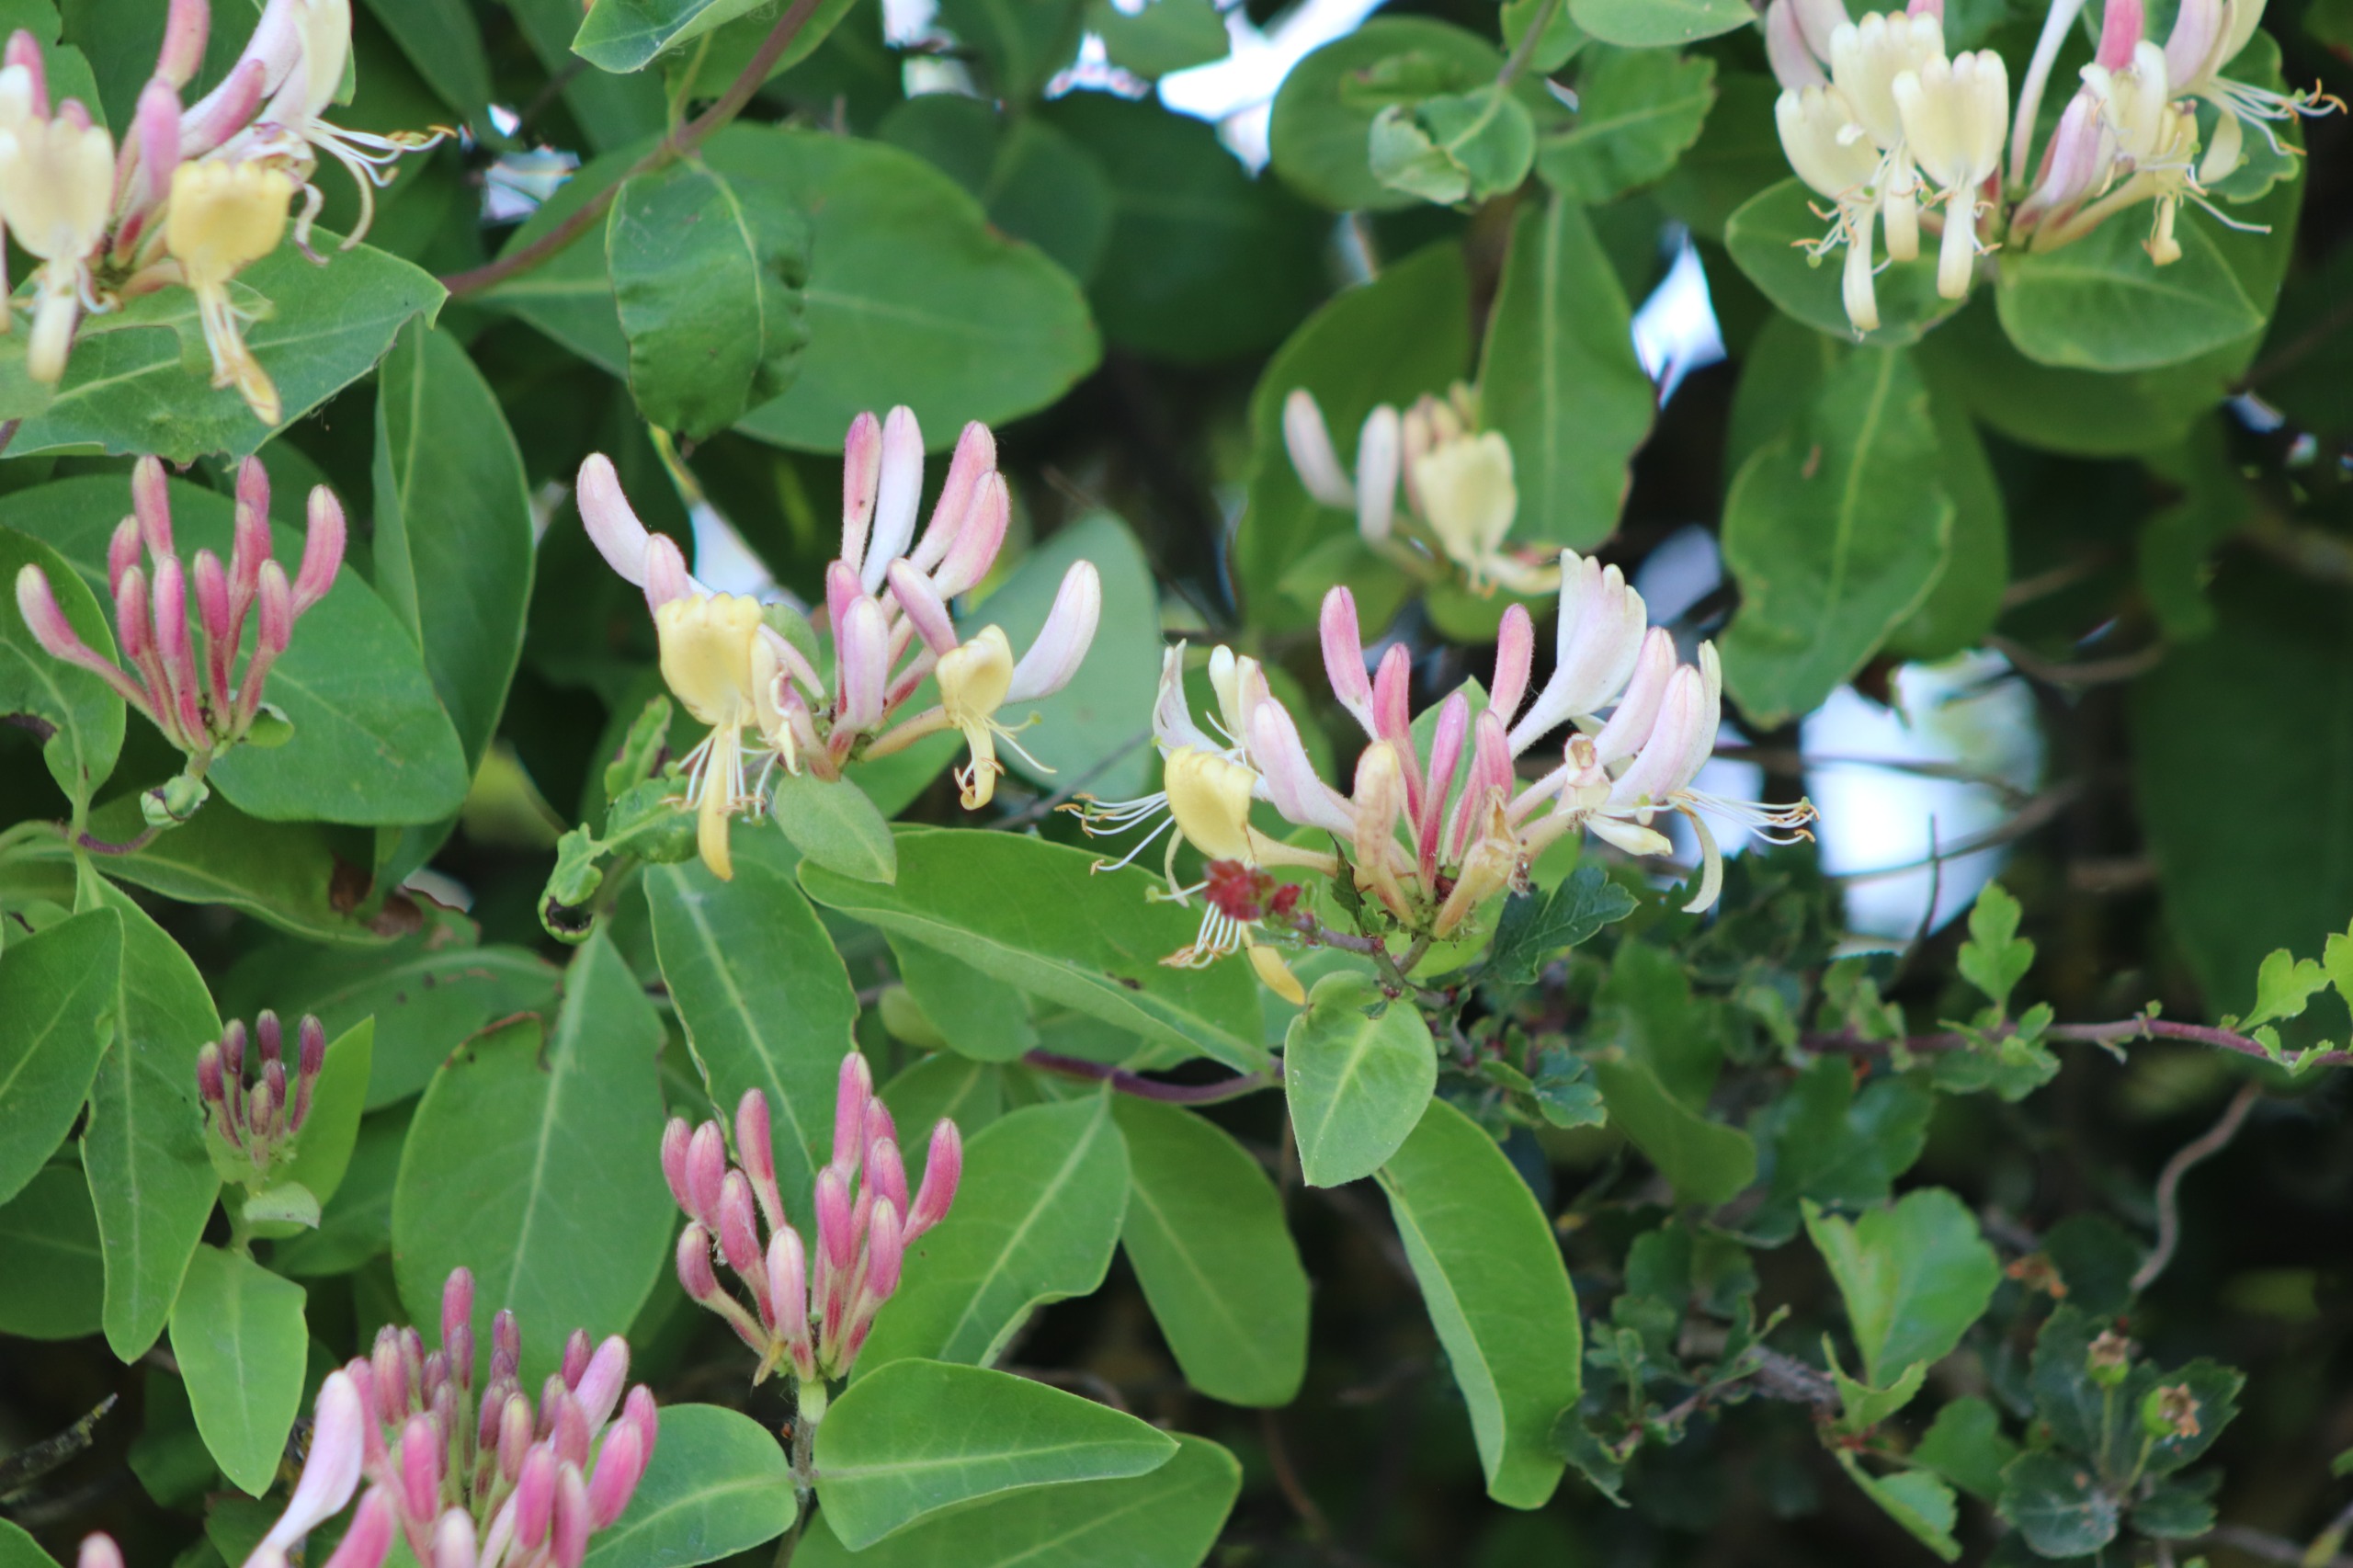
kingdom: Plantae
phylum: Tracheophyta
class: Magnoliopsida
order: Dipsacales
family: Caprifoliaceae
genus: Lonicera
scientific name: Lonicera periclymenum
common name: Almindelig gedeblad
